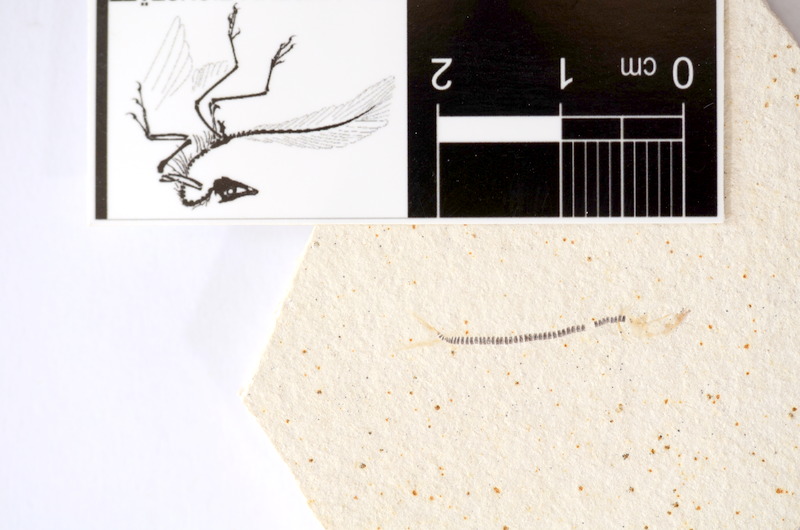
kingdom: Animalia
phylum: Chordata
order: Salmoniformes
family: Orthogonikleithridae
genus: Orthogonikleithrus
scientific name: Orthogonikleithrus hoelli
